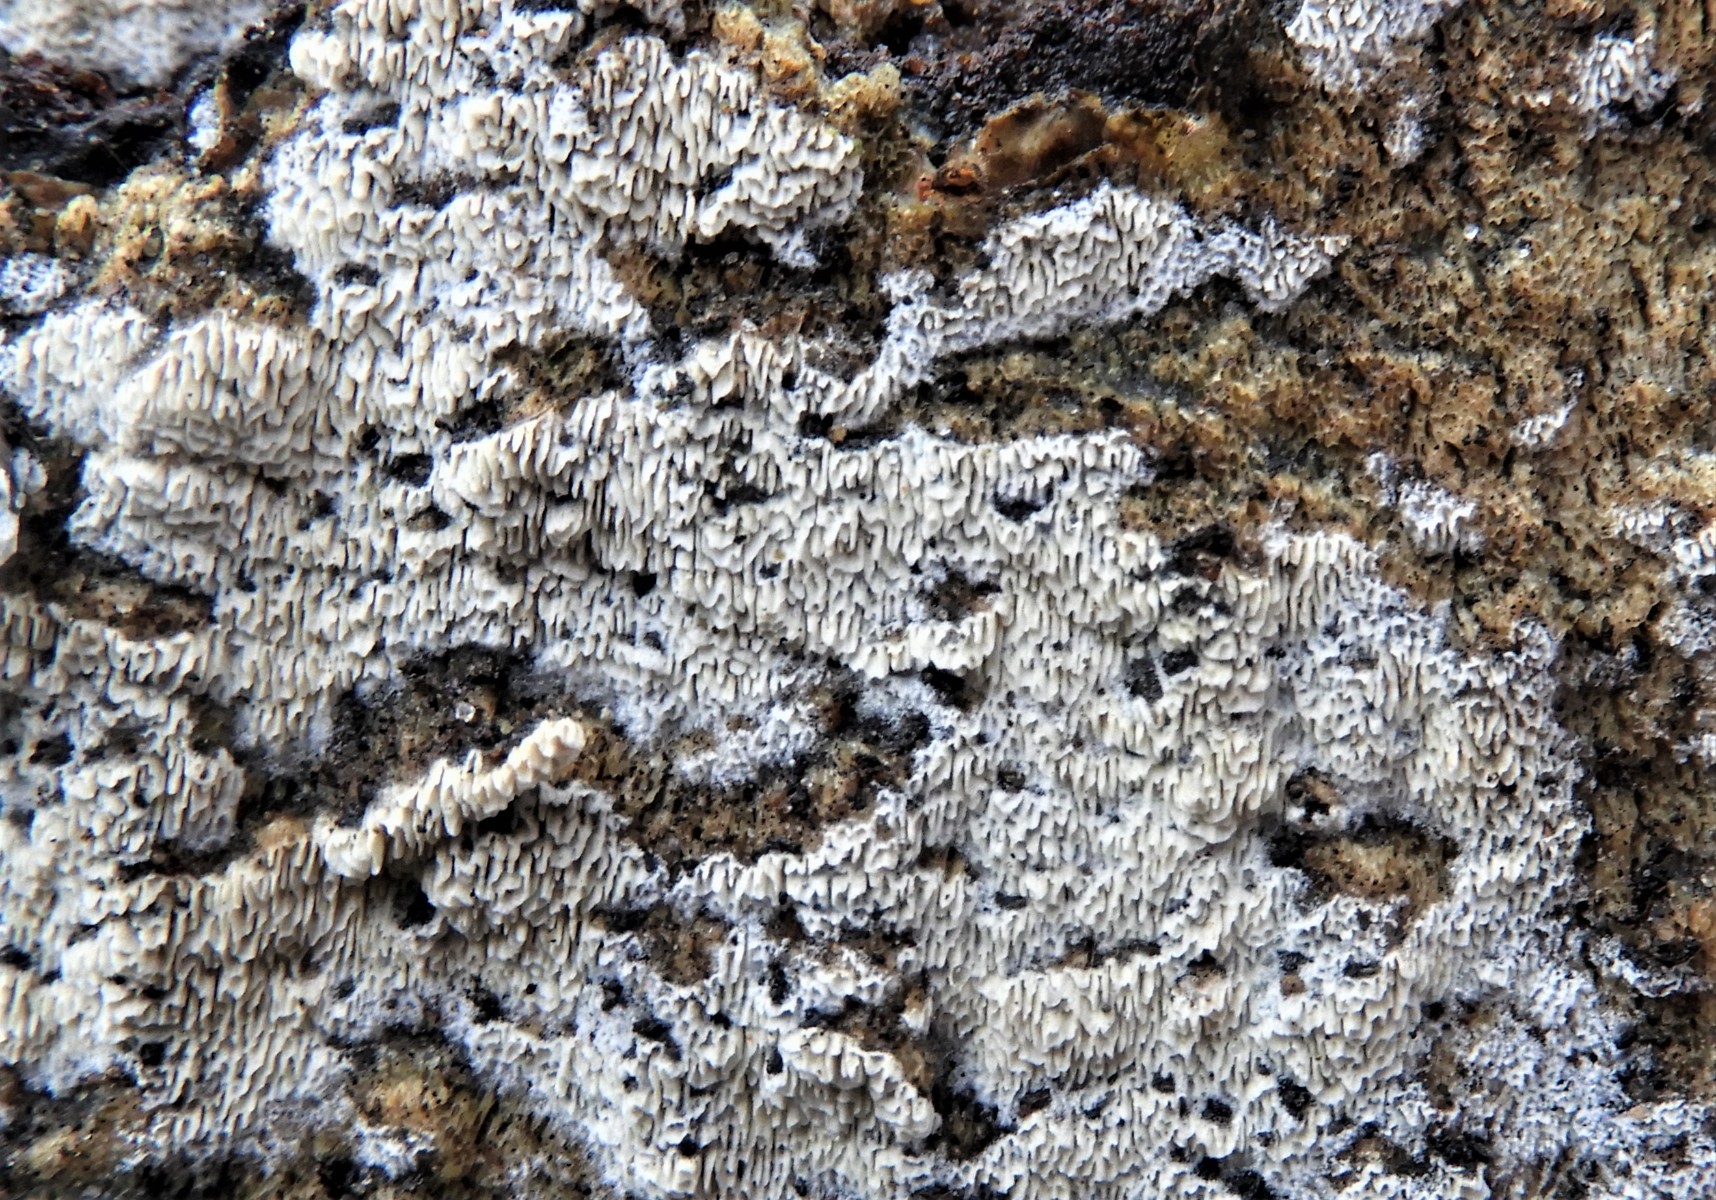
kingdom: Fungi
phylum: Basidiomycota
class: Agaricomycetes
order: Polyporales
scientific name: Polyporales
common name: poresvampordenen
